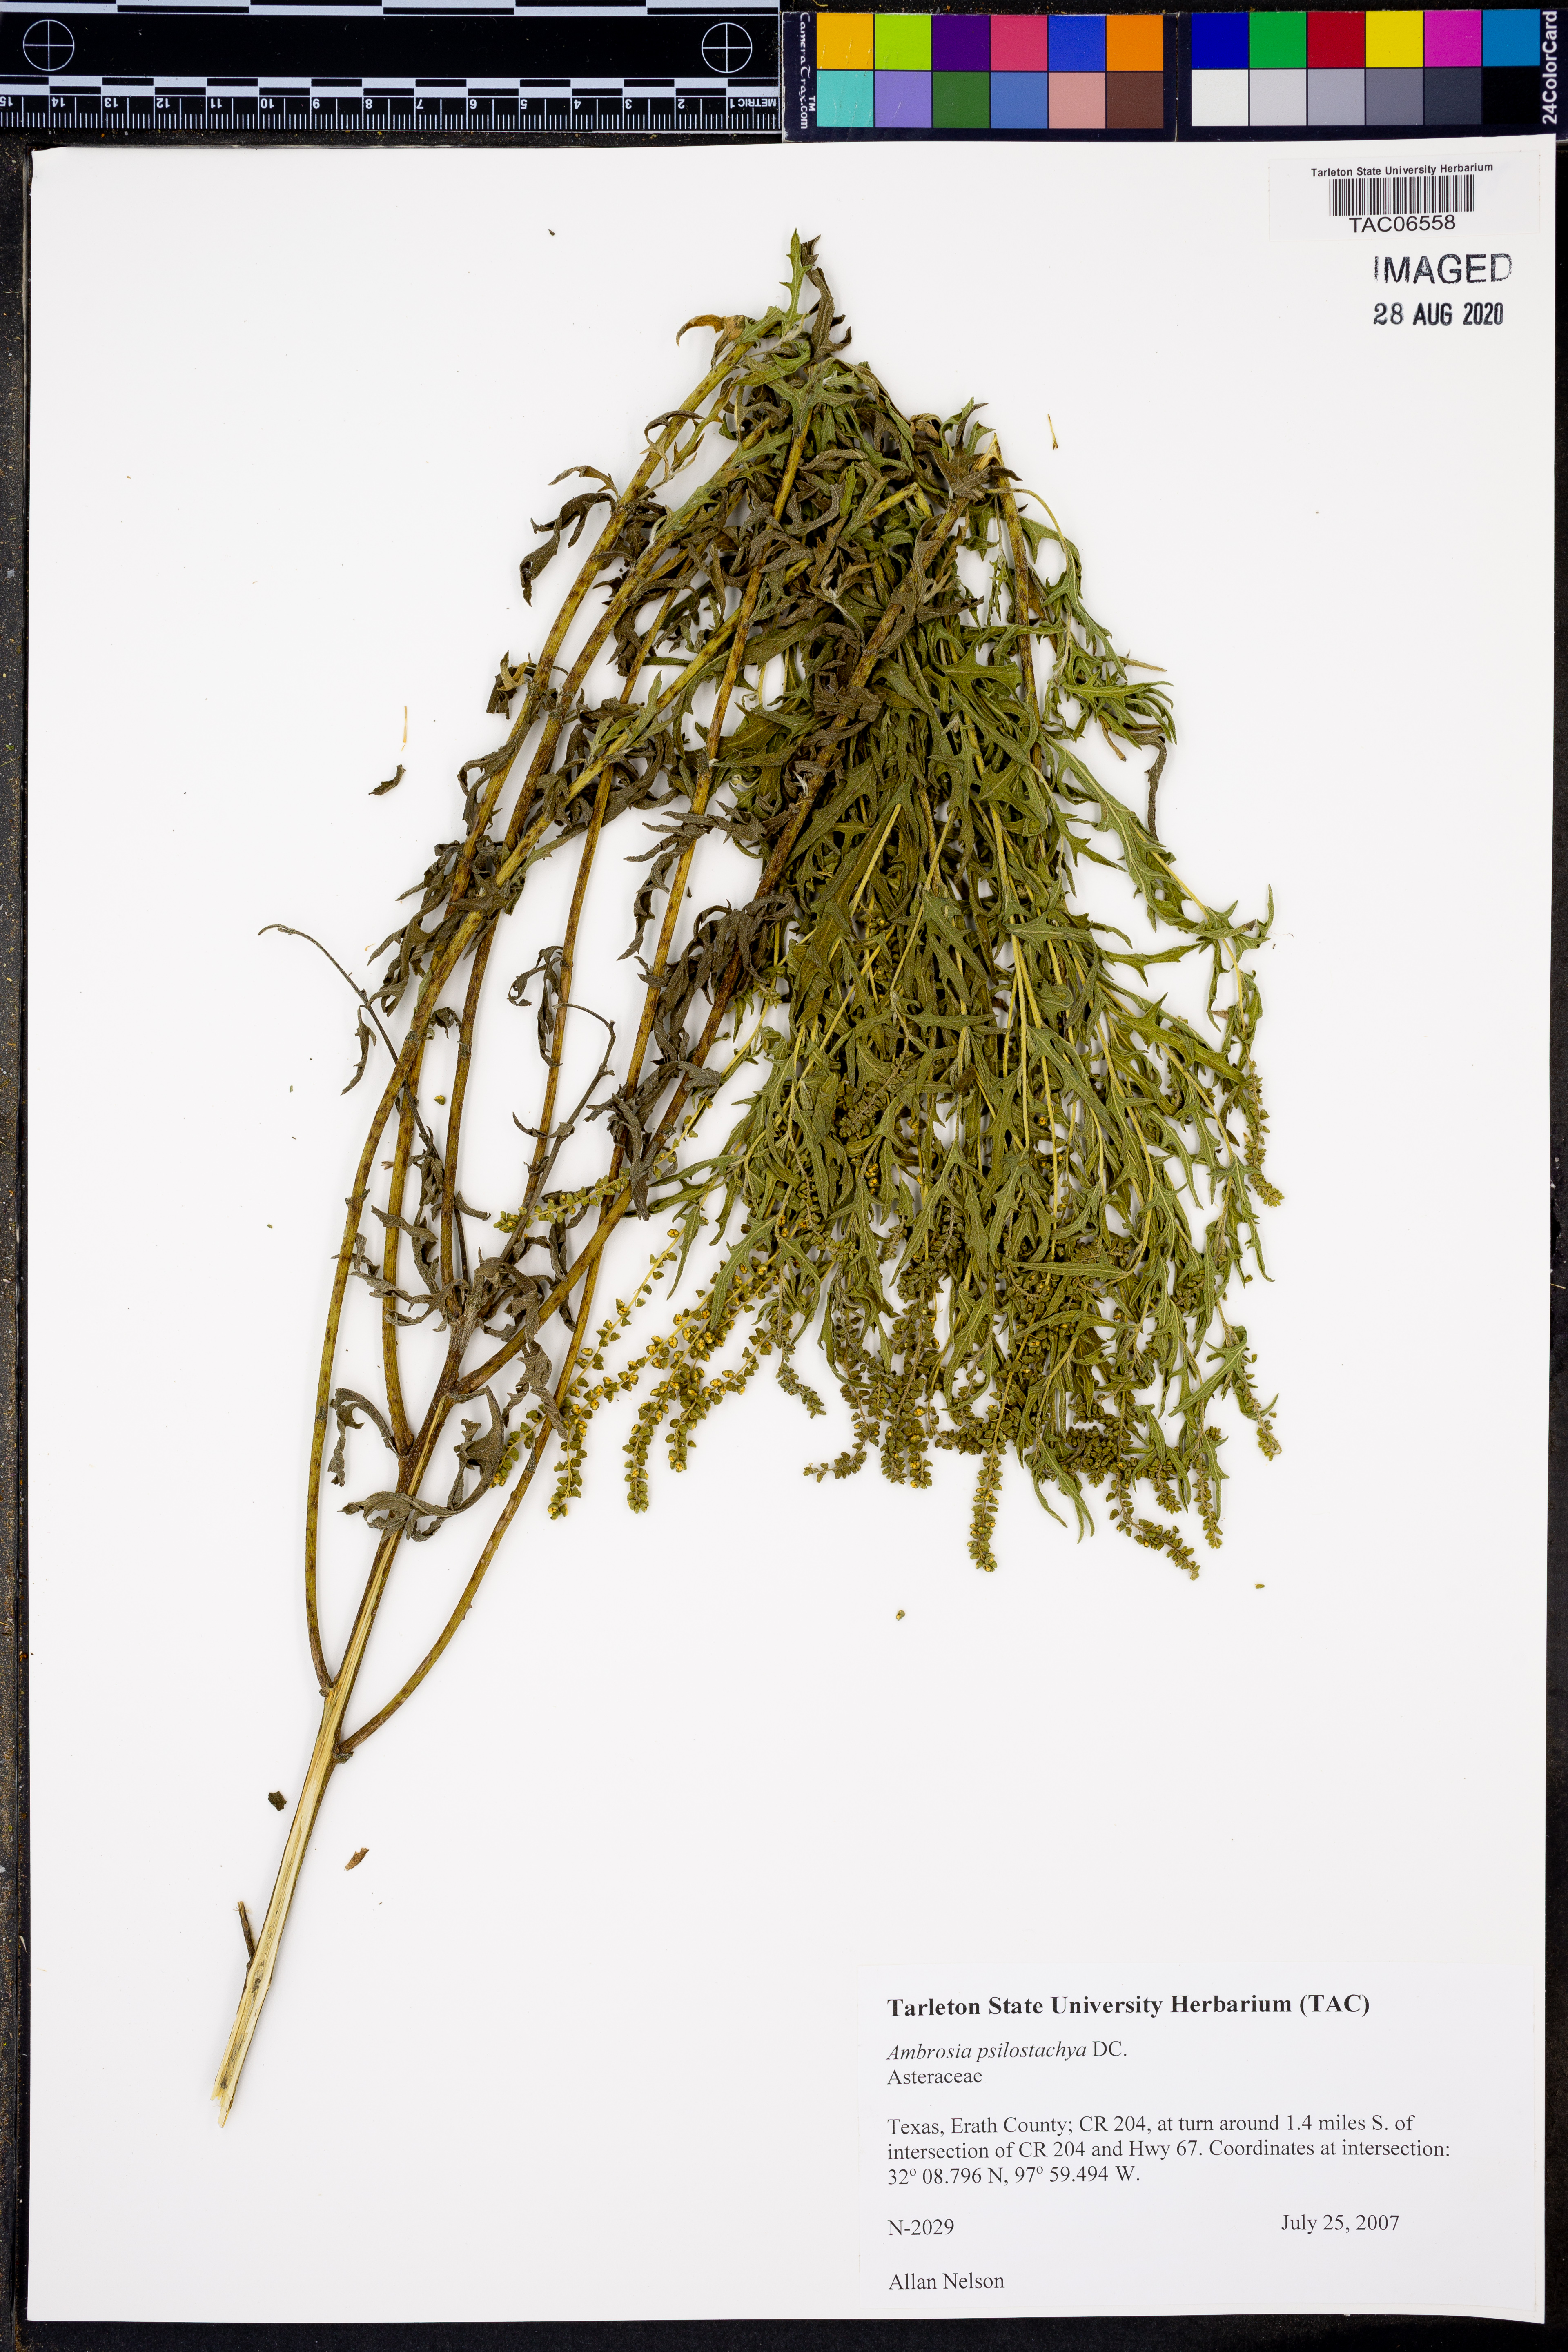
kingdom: Plantae
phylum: Tracheophyta
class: Magnoliopsida
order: Asterales
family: Asteraceae
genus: Ambrosia
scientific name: Ambrosia psilostachya
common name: Perennial ragweed
